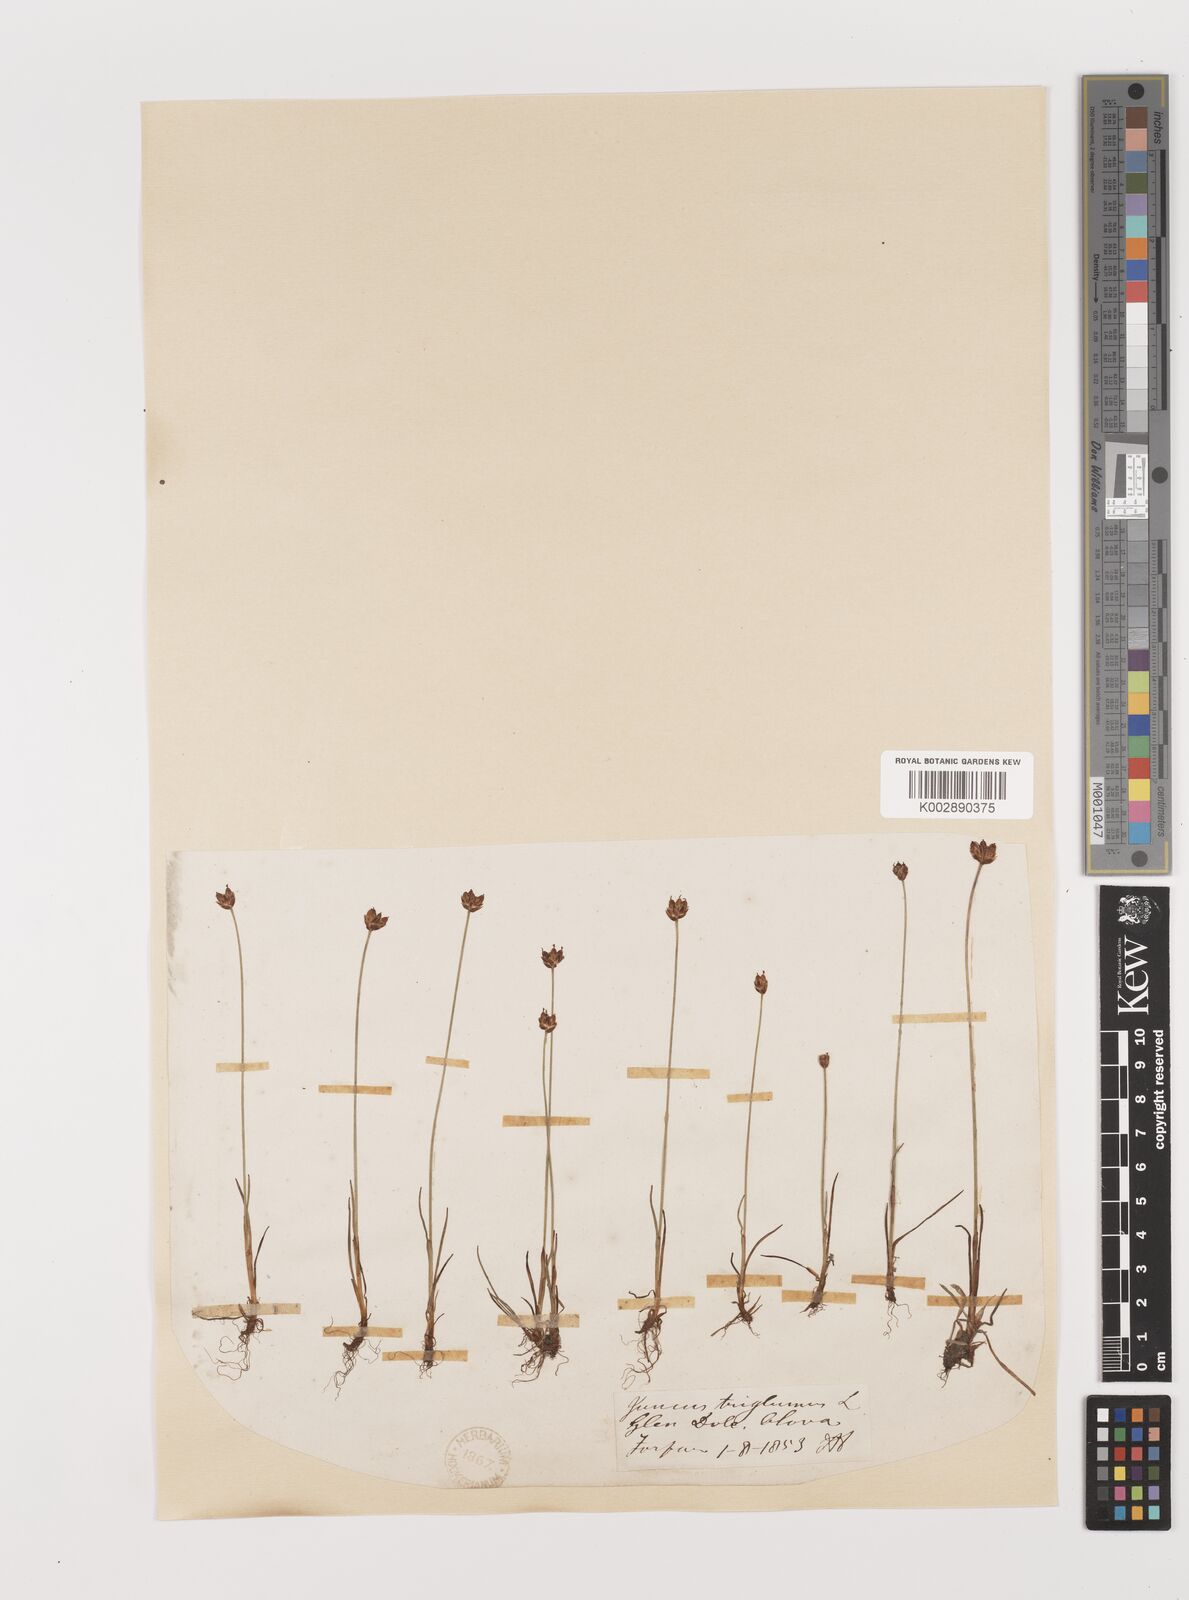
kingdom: Plantae
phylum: Tracheophyta
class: Liliopsida
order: Poales
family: Juncaceae
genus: Juncus
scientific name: Juncus triglumis
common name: Three-flowered rush
